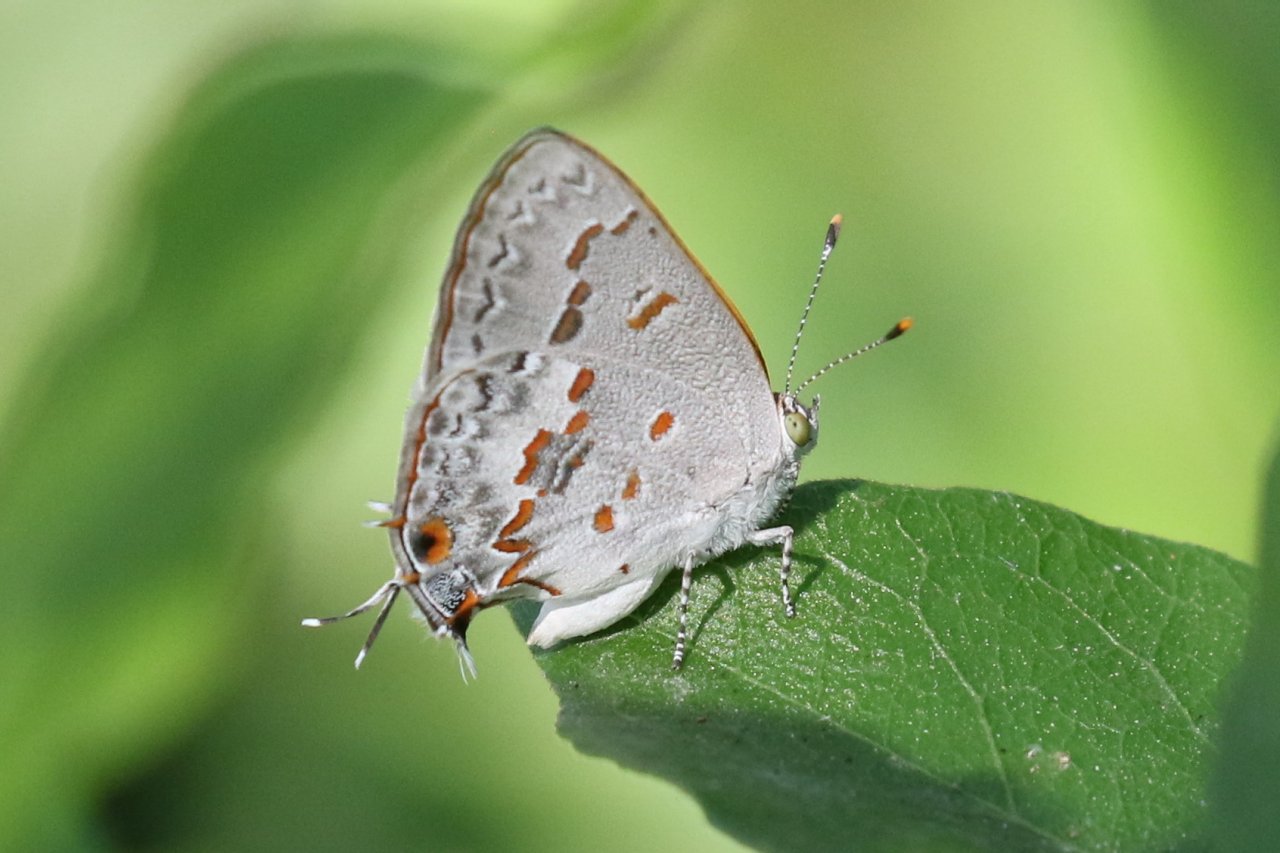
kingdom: Animalia
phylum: Arthropoda
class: Insecta
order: Lepidoptera
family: Lycaenidae
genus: Ministrymon
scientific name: Ministrymon clytie
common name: Clytie Ministreak
